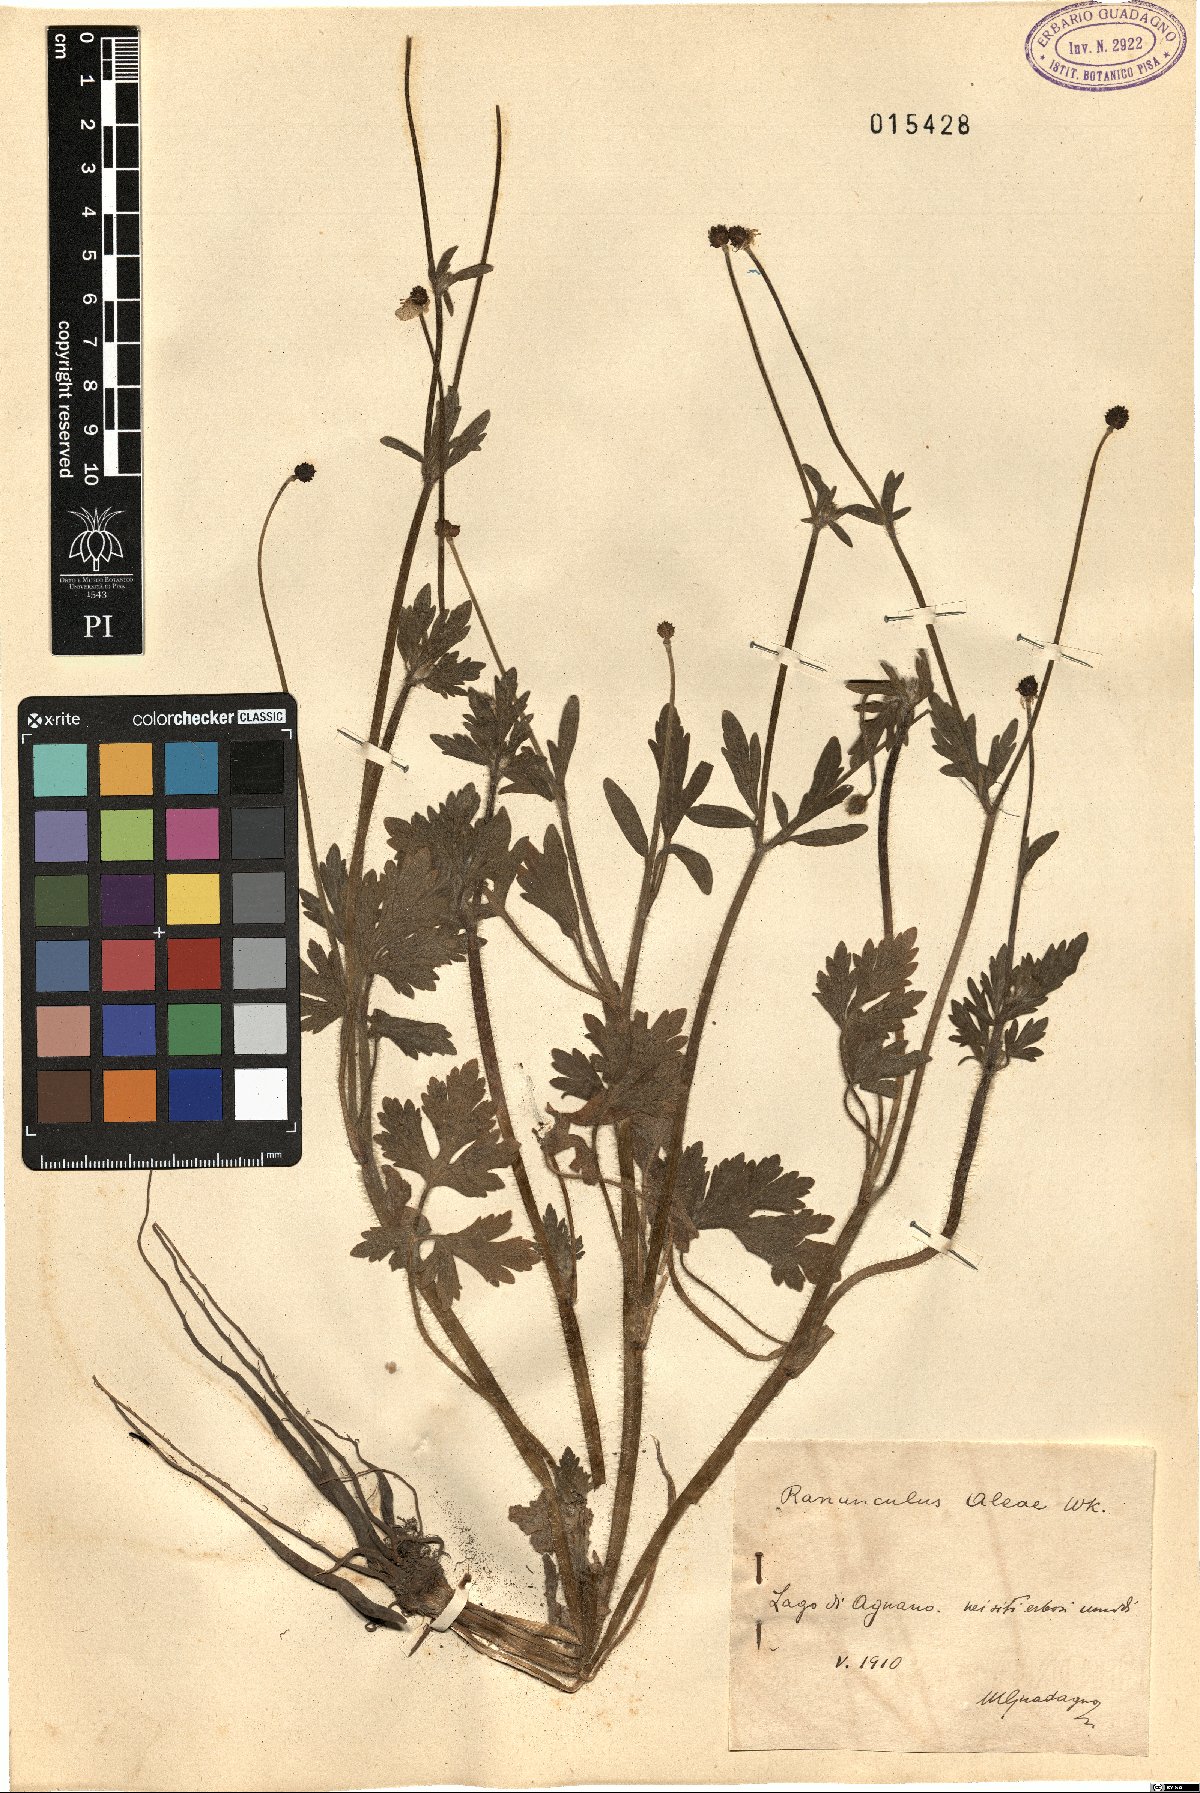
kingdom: Plantae
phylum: Tracheophyta
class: Magnoliopsida
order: Ranunculales
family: Ranunculaceae
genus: Ranunculus
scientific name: Ranunculus neapolitanus
